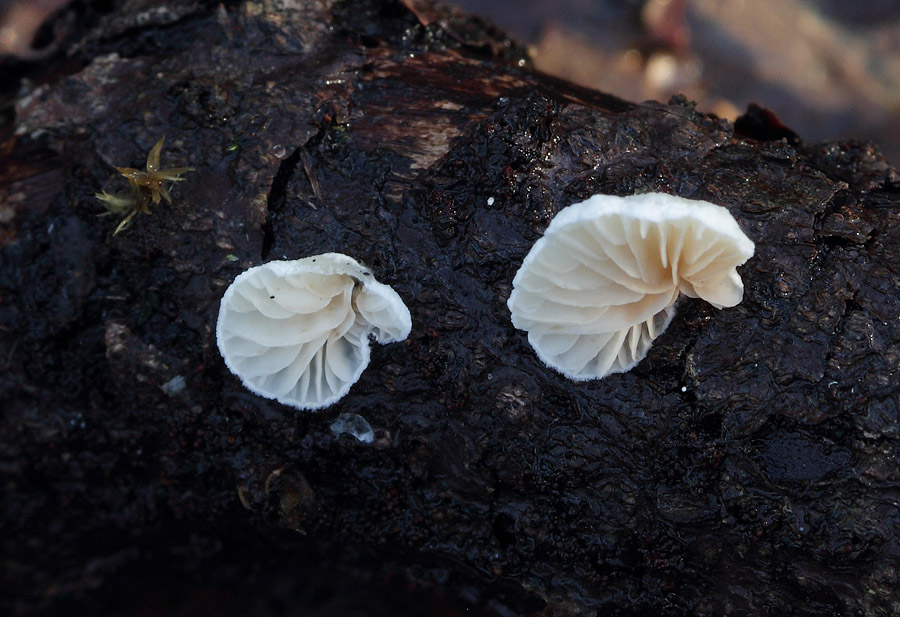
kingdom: Fungi
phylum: Basidiomycota
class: Agaricomycetes
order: Agaricales
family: Crepidotaceae
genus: Crepidotus
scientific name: Crepidotus cesatii
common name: almindelig muslingesvamp
